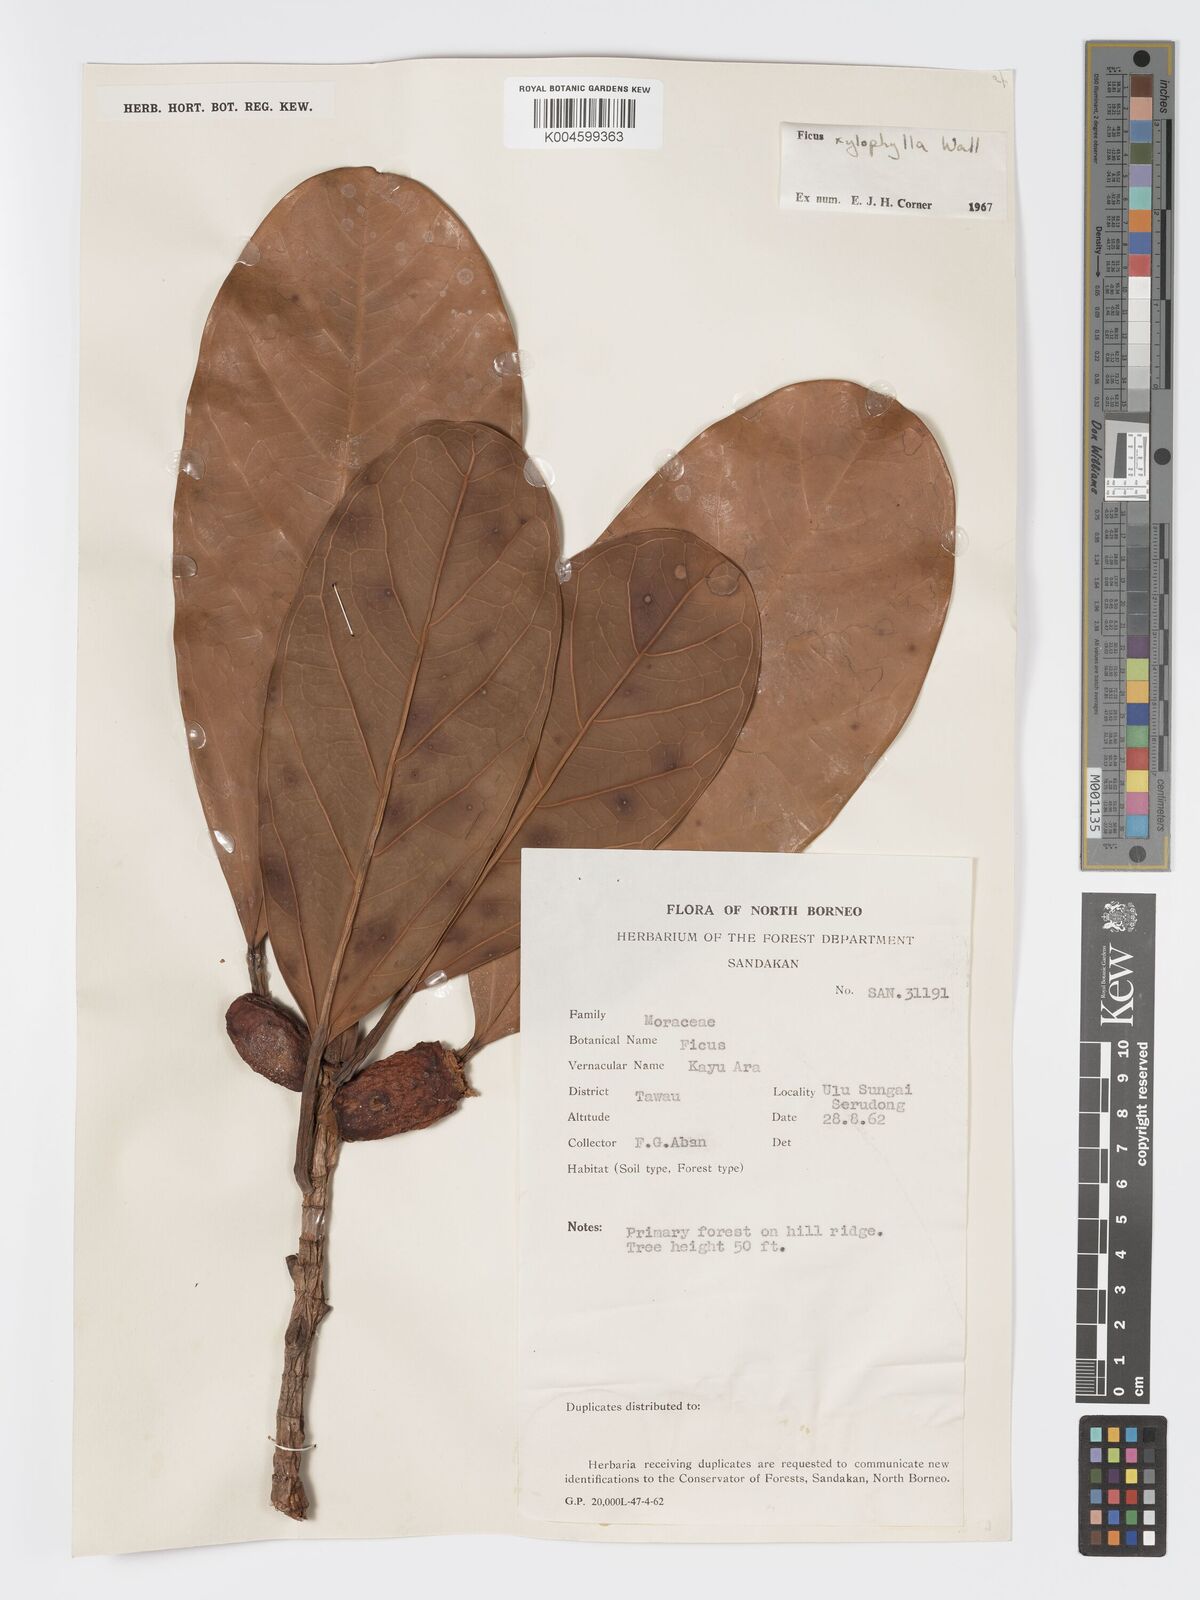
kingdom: Plantae
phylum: Tracheophyta
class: Magnoliopsida
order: Rosales
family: Moraceae
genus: Ficus
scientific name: Ficus xylophylla
